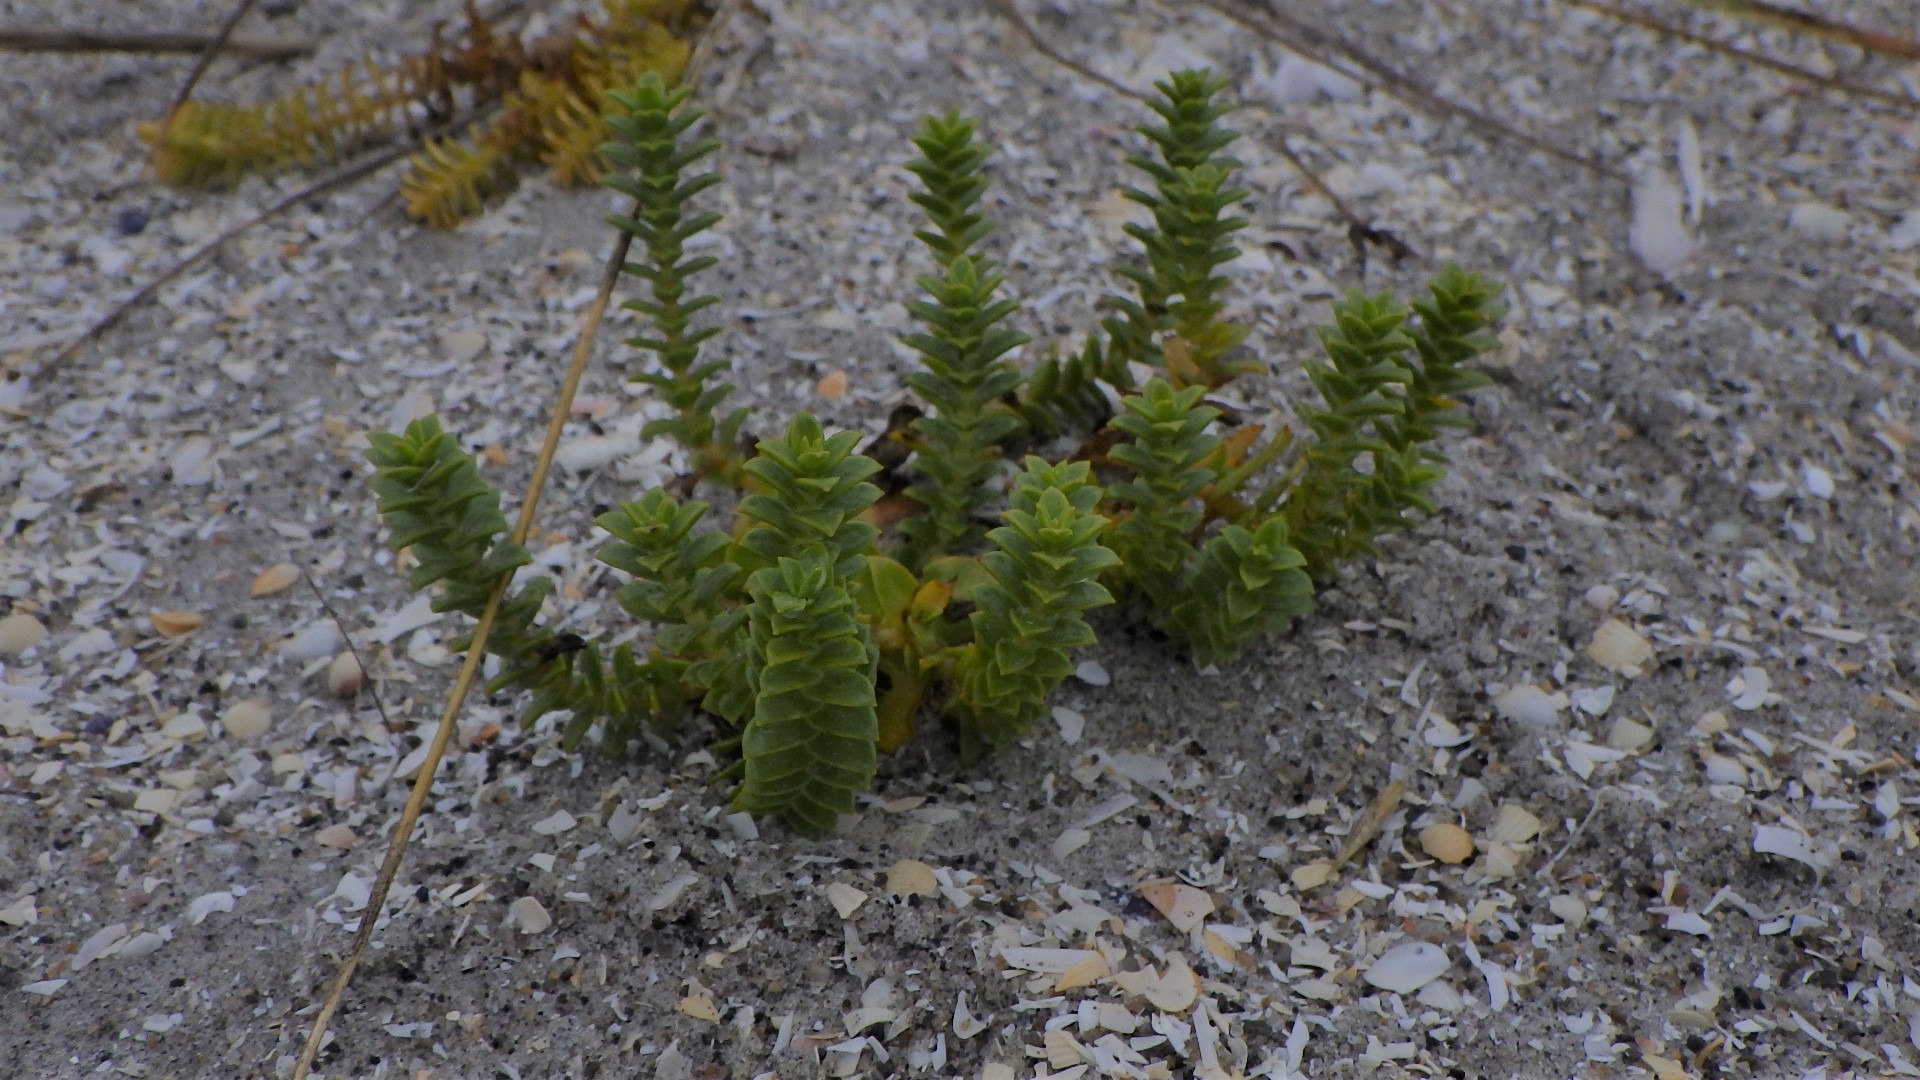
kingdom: Plantae
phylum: Tracheophyta
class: Magnoliopsida
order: Caryophyllales
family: Caryophyllaceae
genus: Honckenya
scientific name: Honckenya peploides
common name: Strandarve
